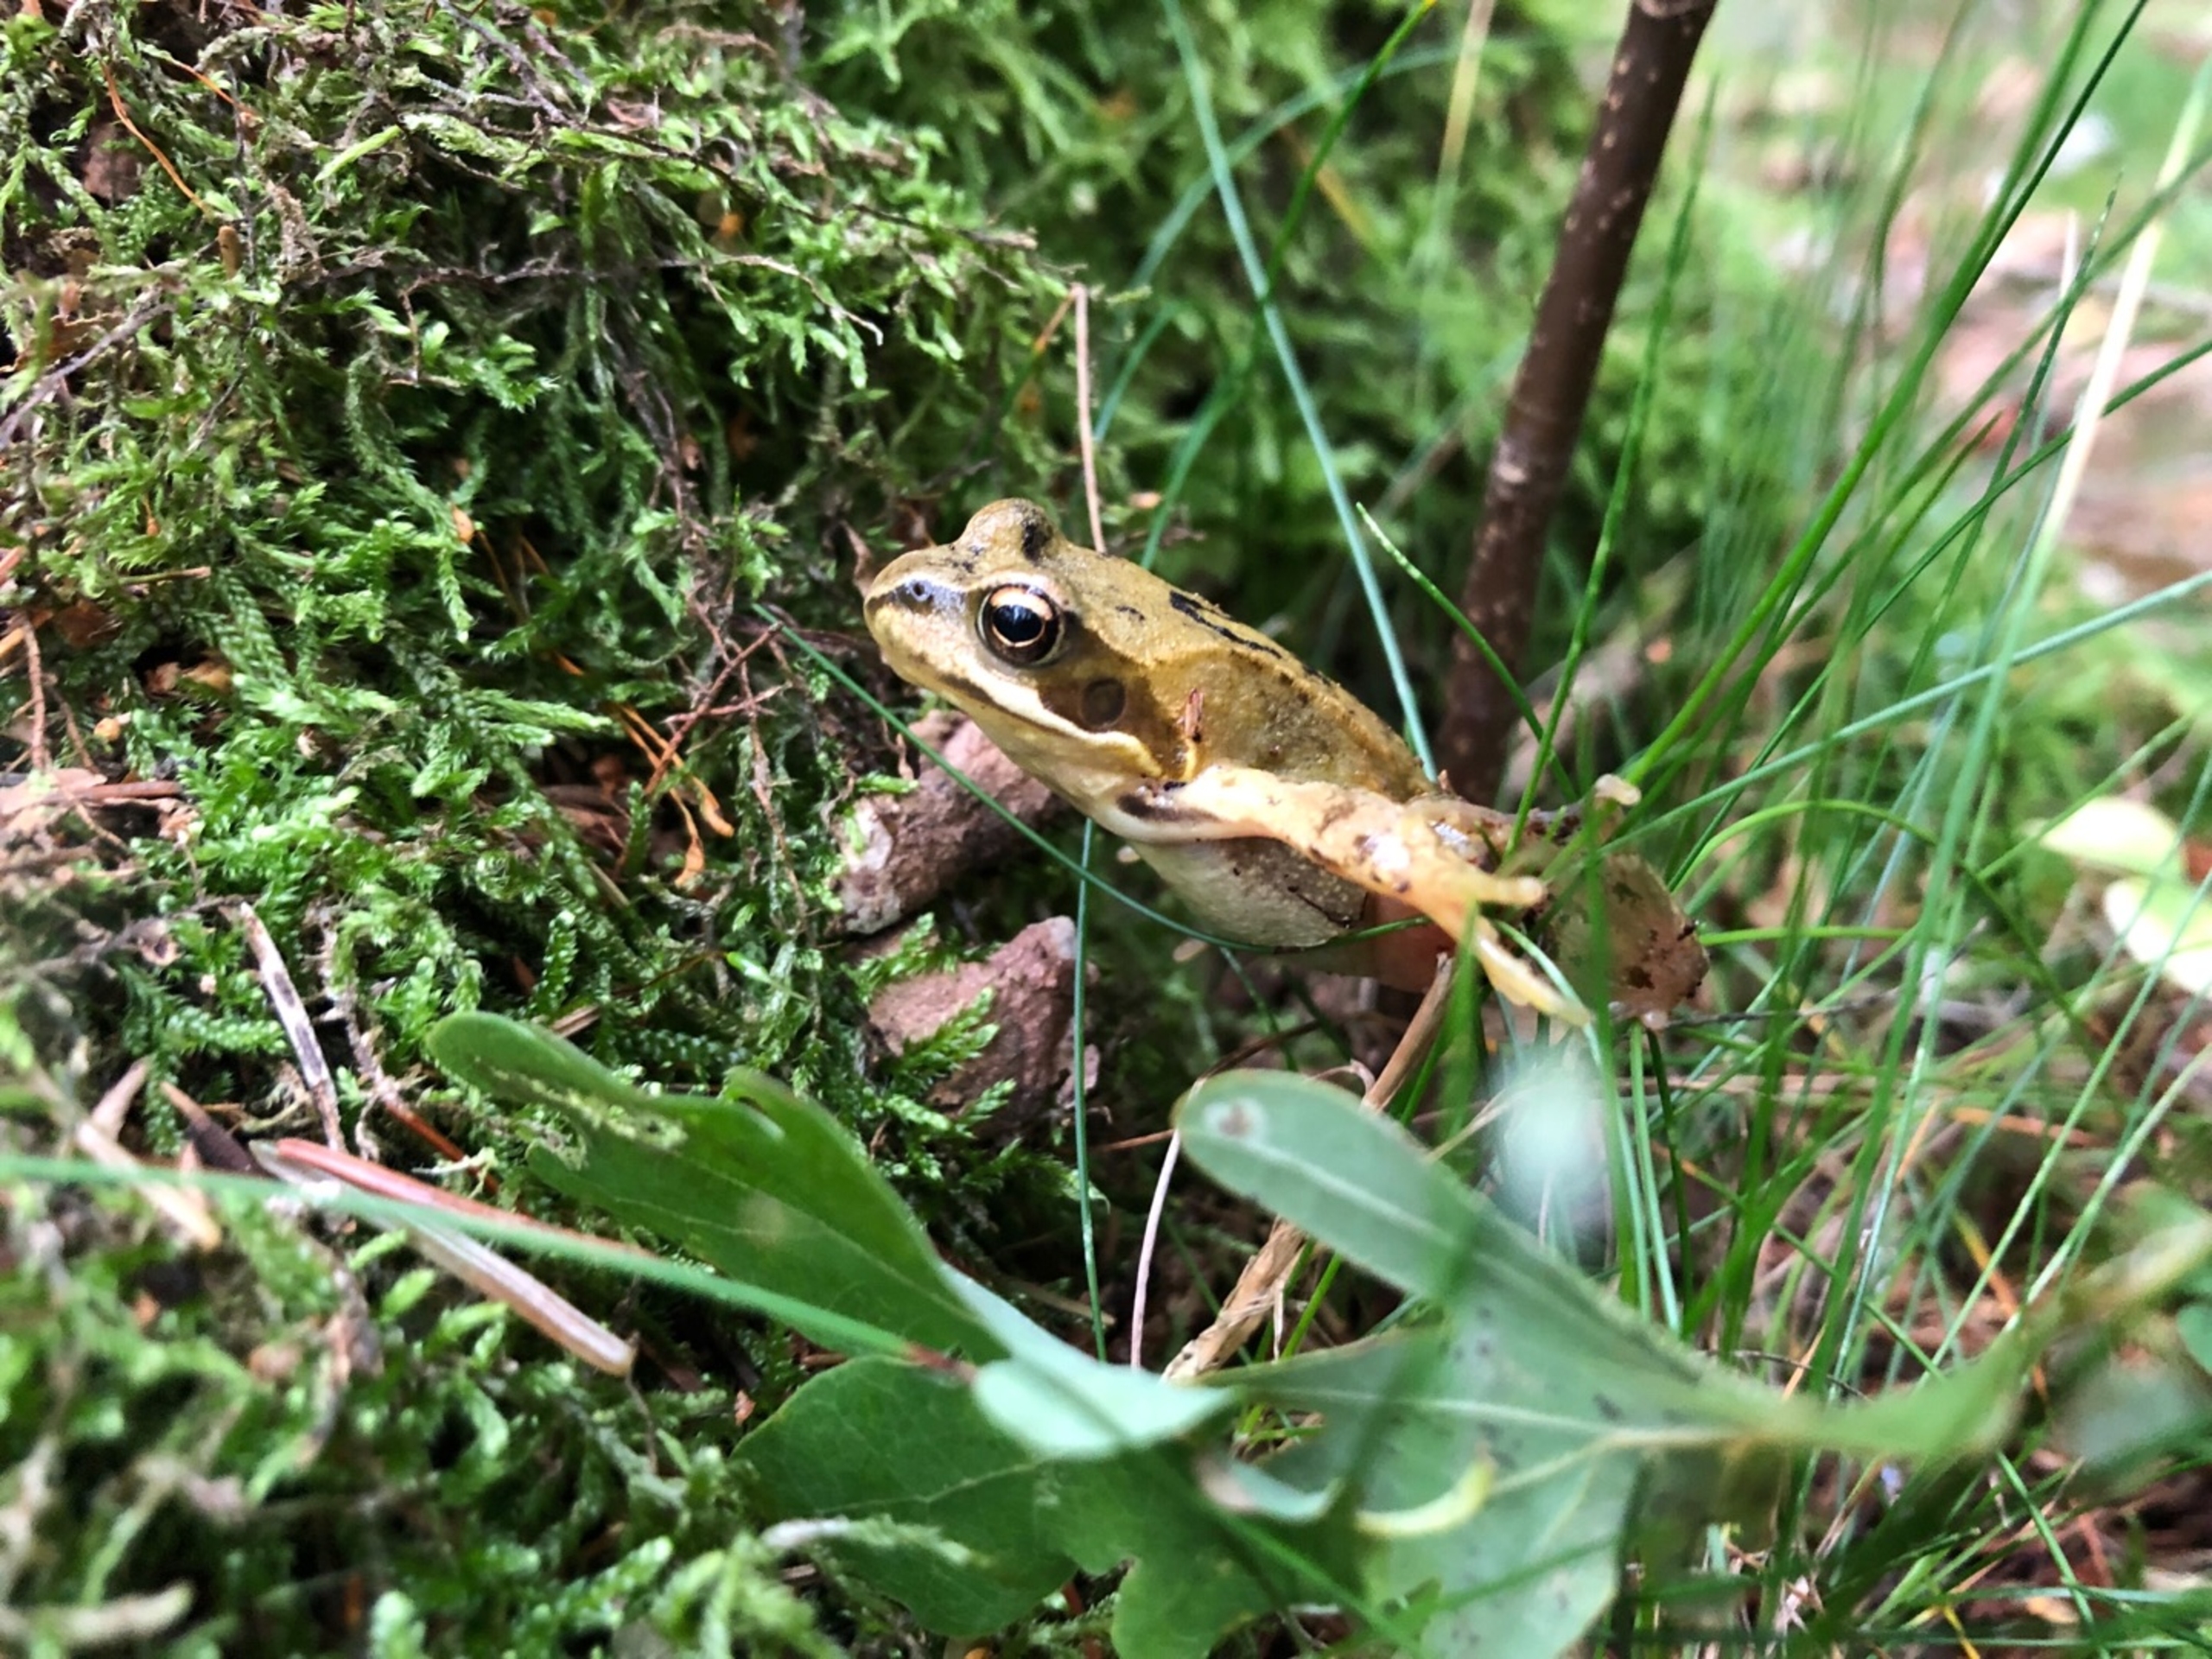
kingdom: Animalia
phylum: Chordata
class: Amphibia
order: Anura
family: Ranidae
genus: Rana
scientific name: Rana temporaria
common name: Butsnudet frø
